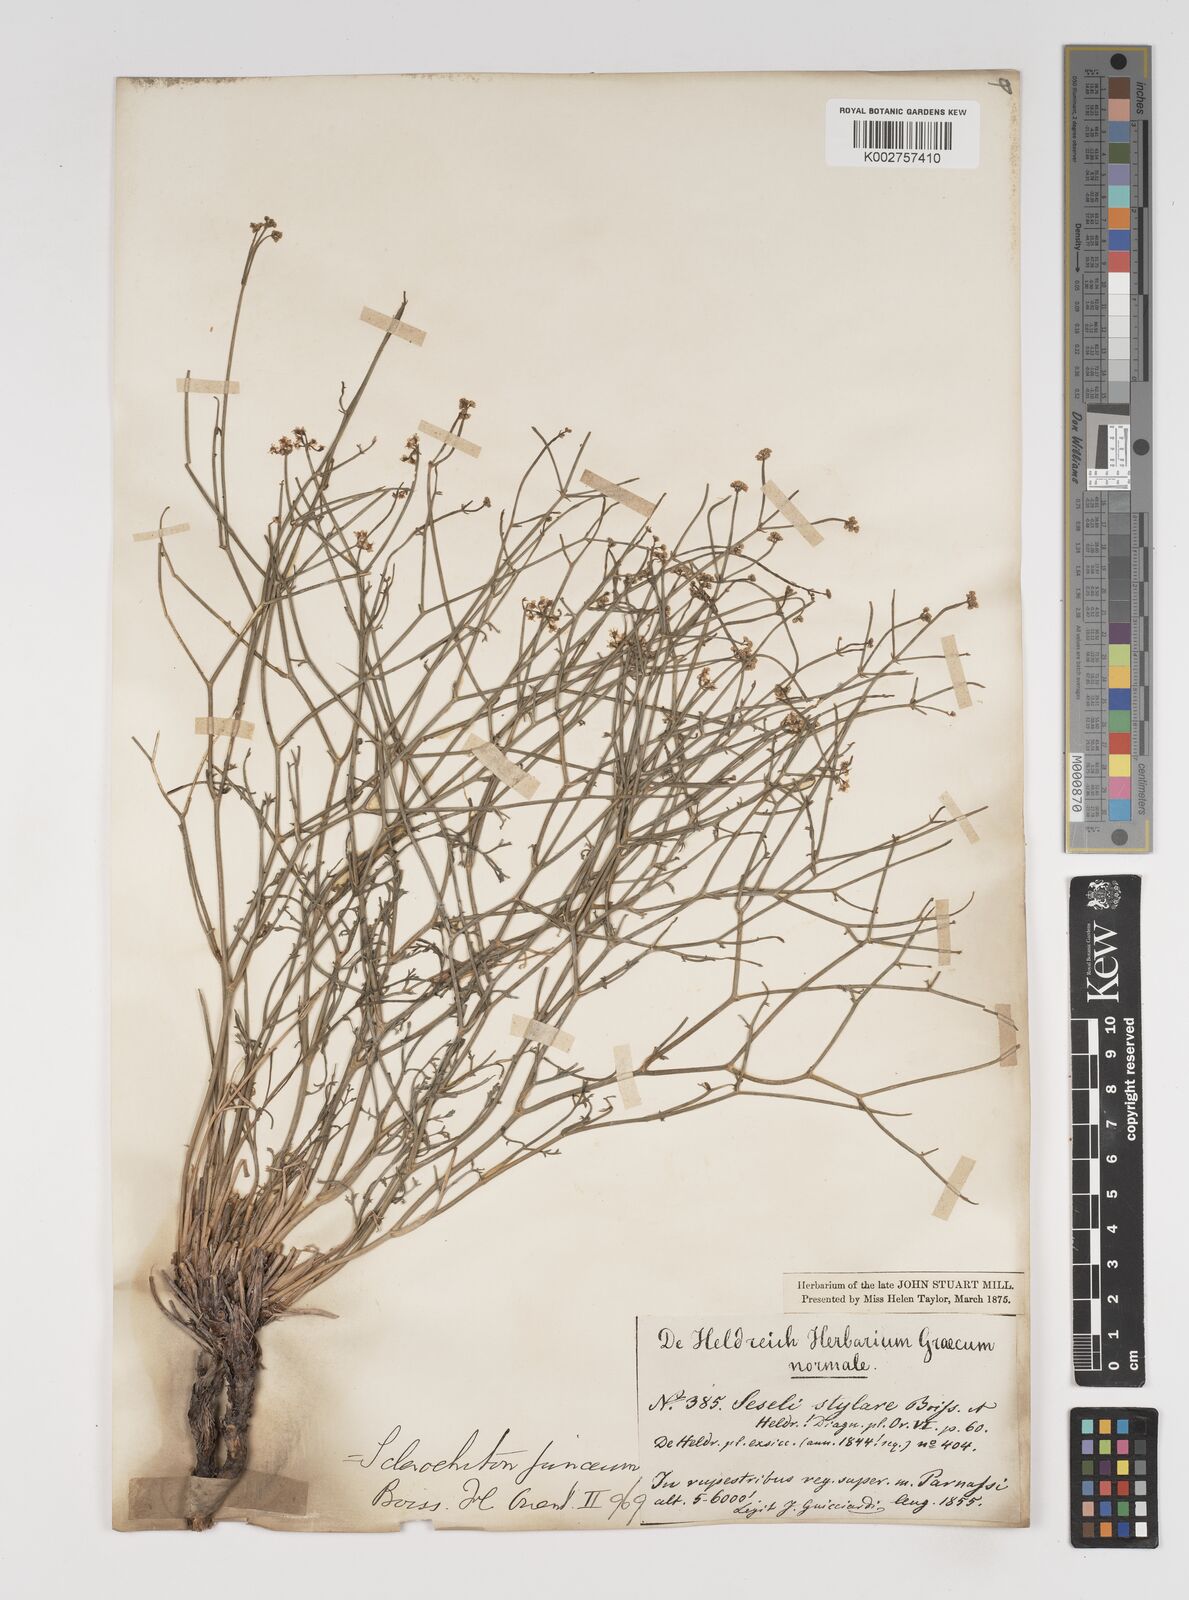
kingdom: Plantae
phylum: Tracheophyta
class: Magnoliopsida
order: Apiales
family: Apiaceae
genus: Thamnosciadium
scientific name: Thamnosciadium junceum
